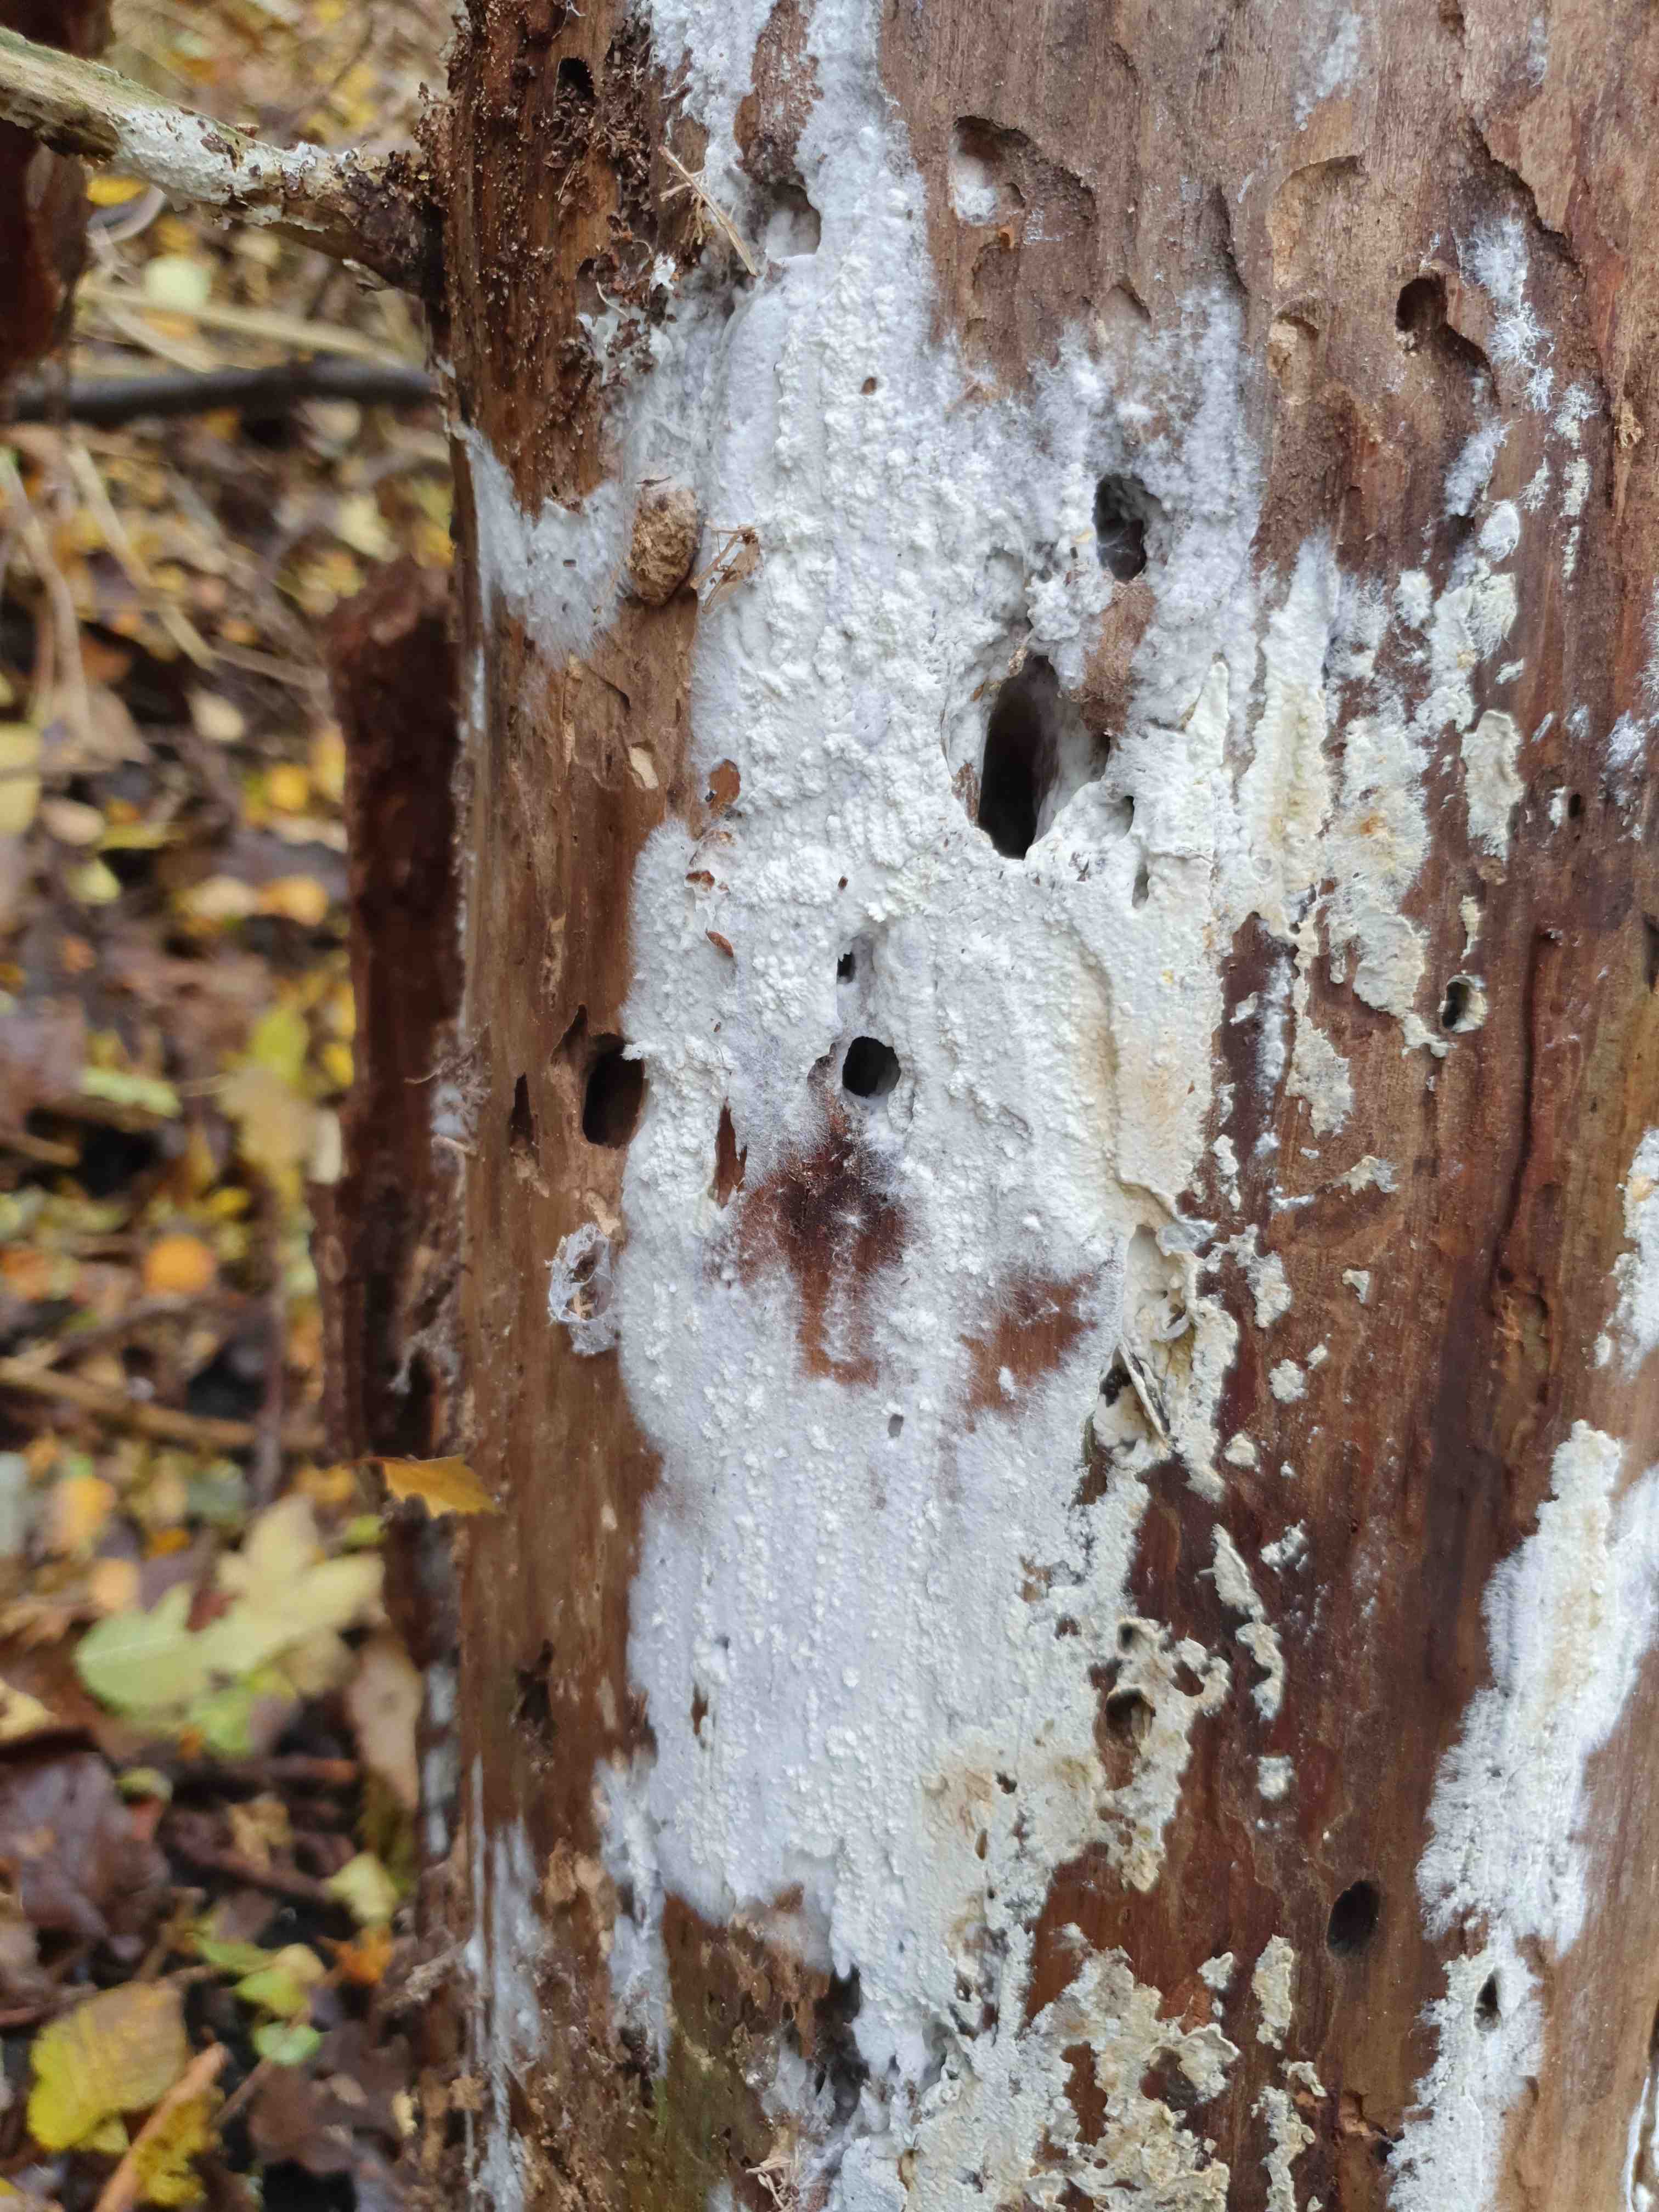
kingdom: Fungi
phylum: Basidiomycota
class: Agaricomycetes
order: Corticiales
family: Corticiaceae
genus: Lyomyces
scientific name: Lyomyces sambuci
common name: almindelig hyldehinde
